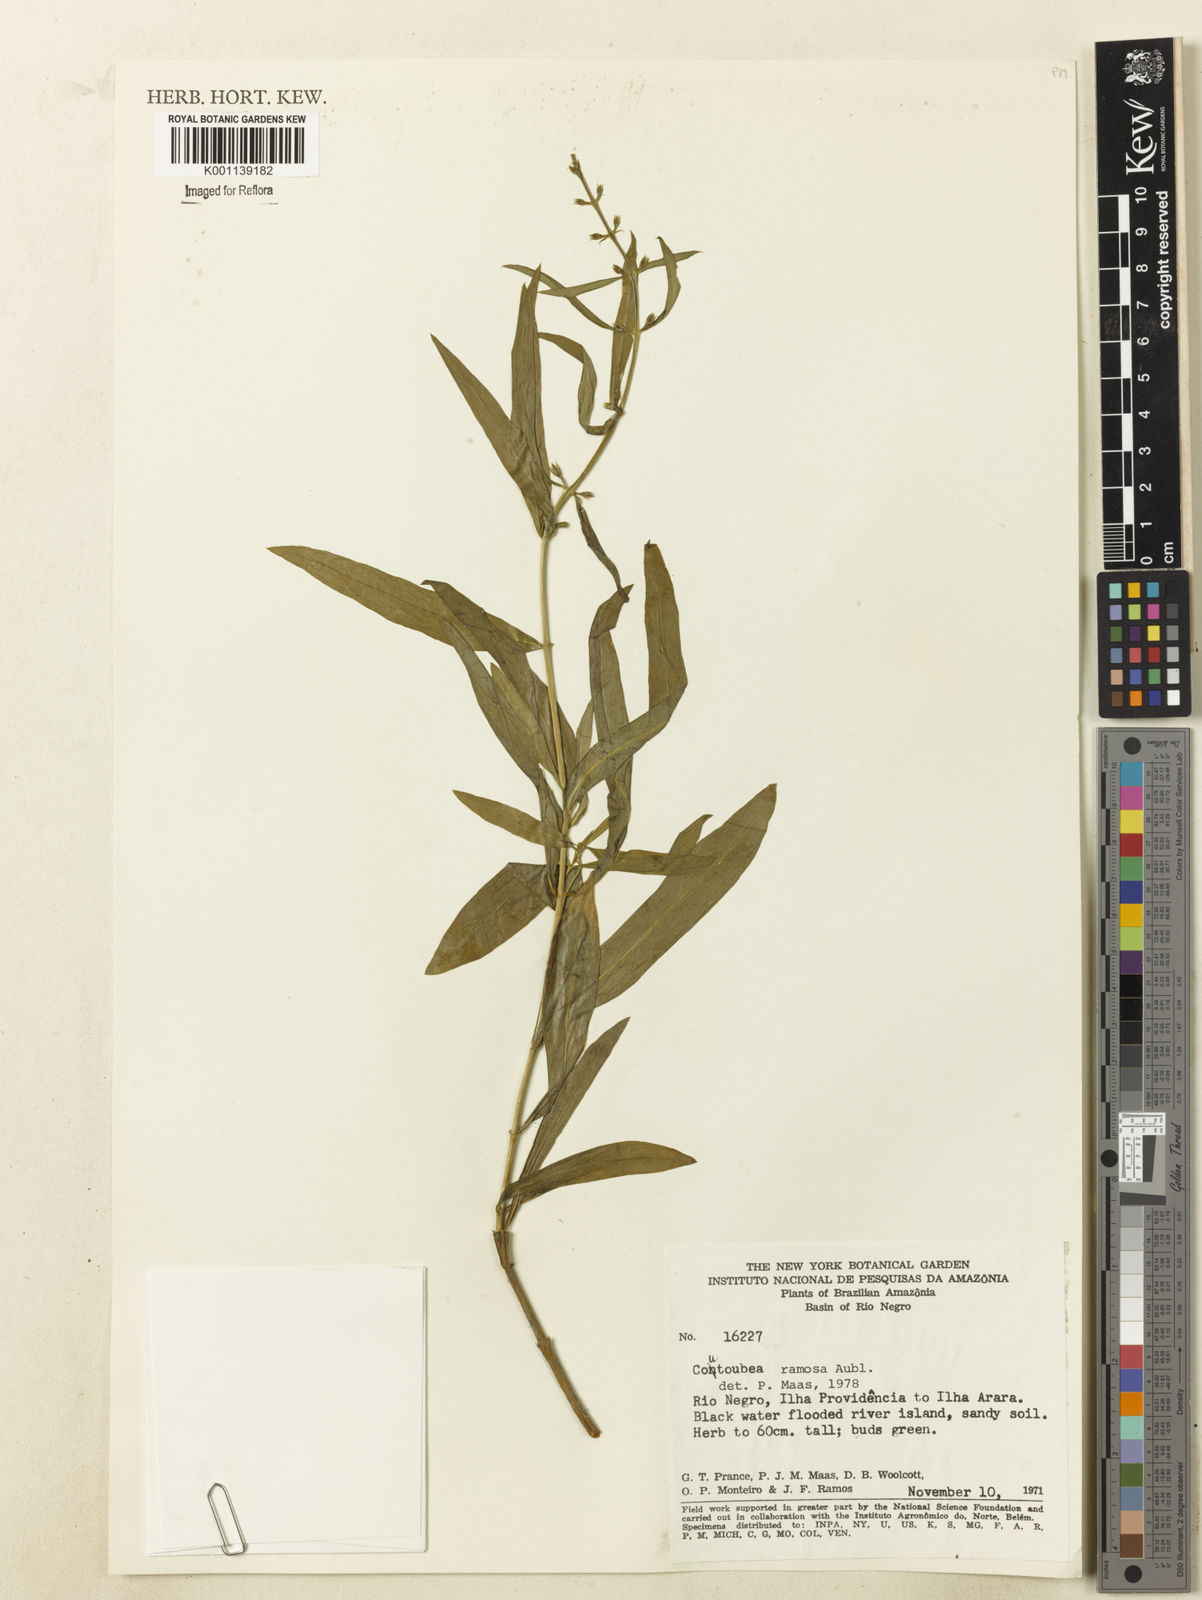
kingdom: Plantae
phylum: Tracheophyta
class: Magnoliopsida
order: Gentianales
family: Gentianaceae
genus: Coutoubea
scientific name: Coutoubea ramosa
